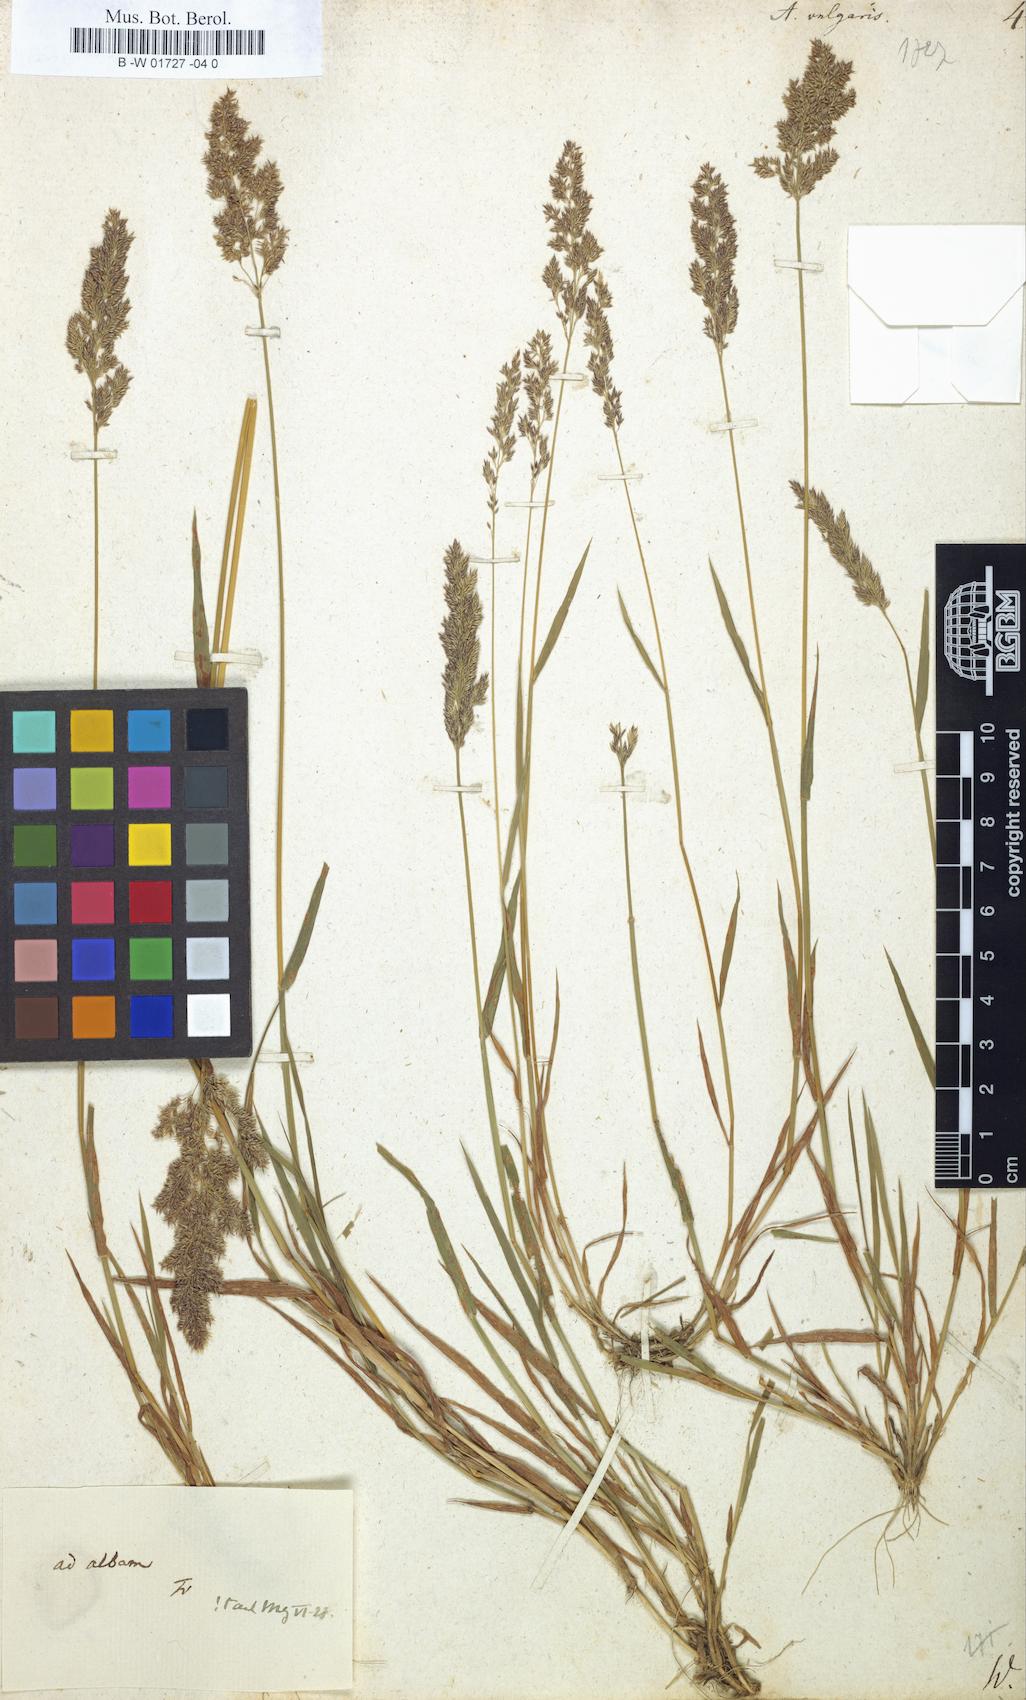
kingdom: Plantae
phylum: Tracheophyta
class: Liliopsida
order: Poales
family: Poaceae
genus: Agrostis
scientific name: Agrostis capillaris
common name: Colonial bentgrass
